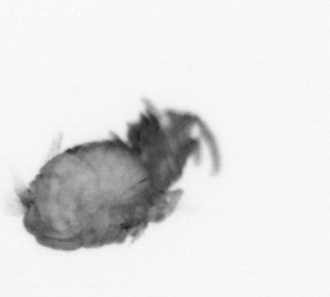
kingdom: Animalia
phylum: Annelida
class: Polychaeta
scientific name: Polychaeta
